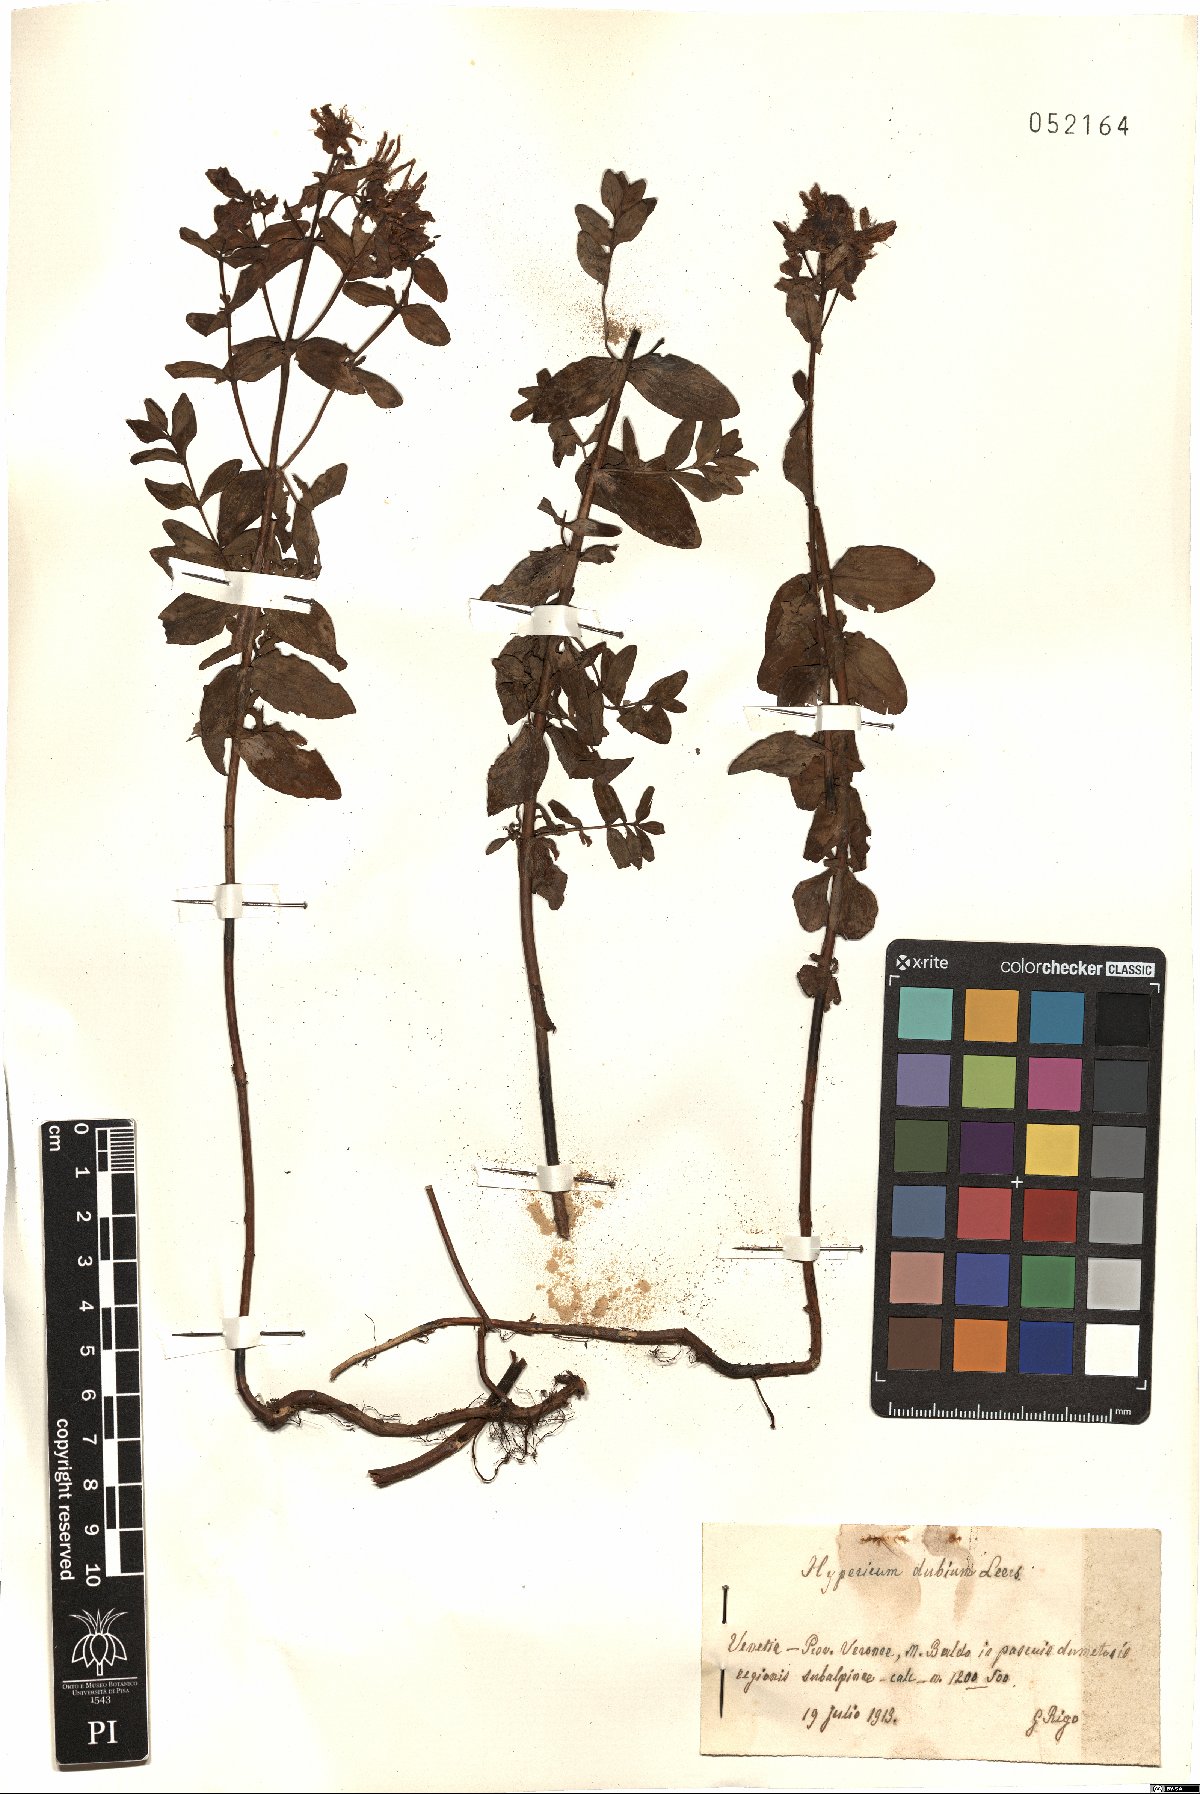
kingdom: Plantae
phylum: Tracheophyta
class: Magnoliopsida
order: Malpighiales
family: Hypericaceae
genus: Hypericum
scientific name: Hypericum dubium
